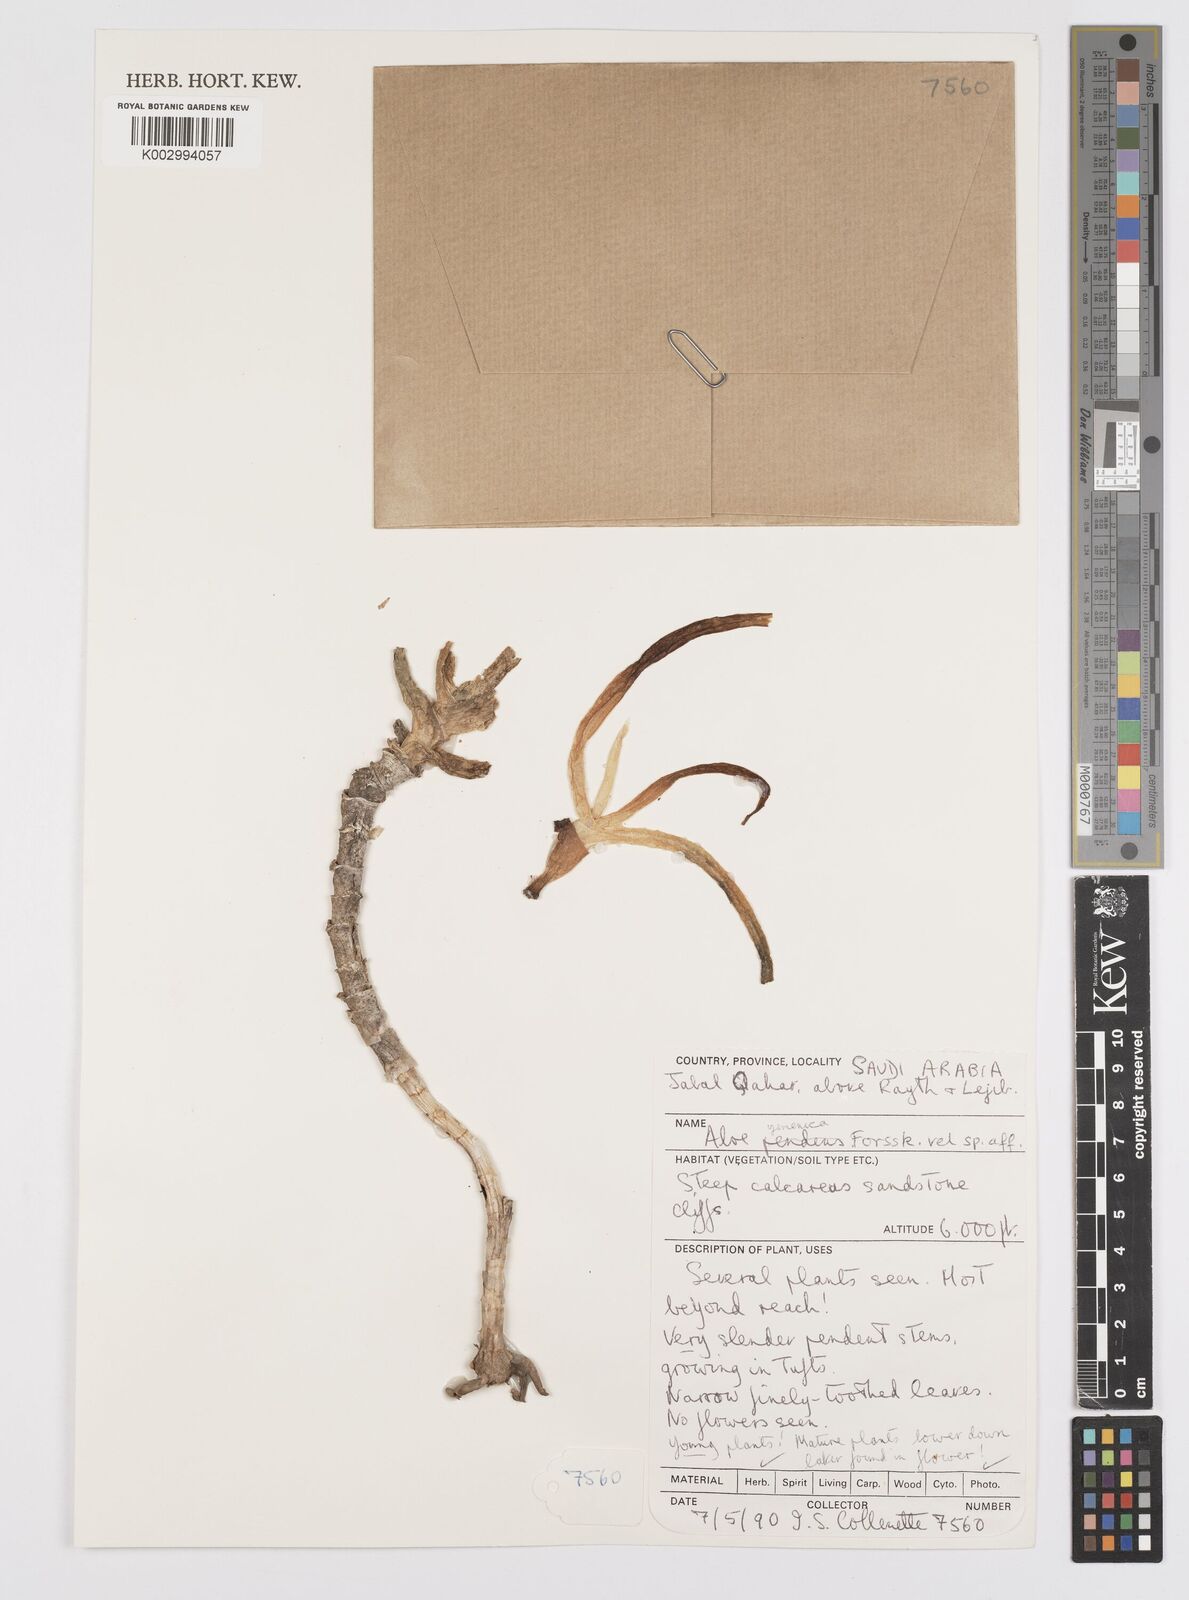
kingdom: Plantae
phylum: Tracheophyta
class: Liliopsida
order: Asparagales
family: Asphodelaceae
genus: Aloe
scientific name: Aloe yemenica
